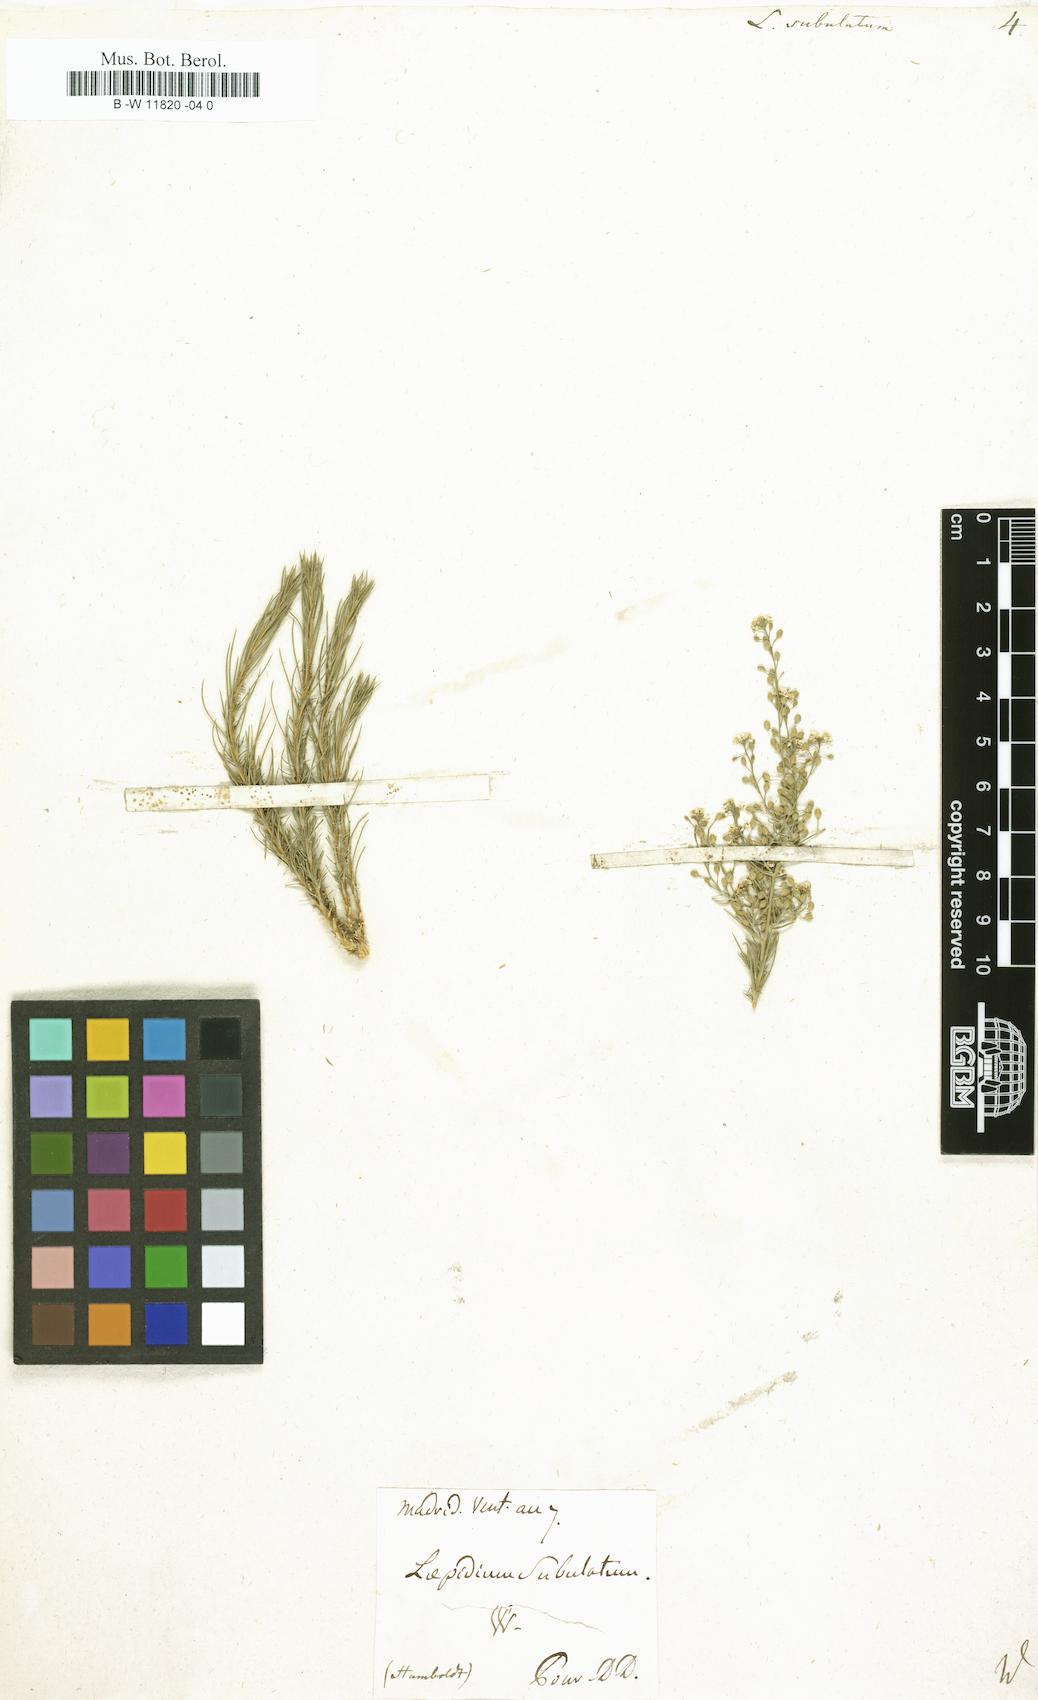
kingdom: Plantae
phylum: Tracheophyta
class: Magnoliopsida
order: Brassicales
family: Brassicaceae
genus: Lepidium
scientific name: Lepidium subulatum
